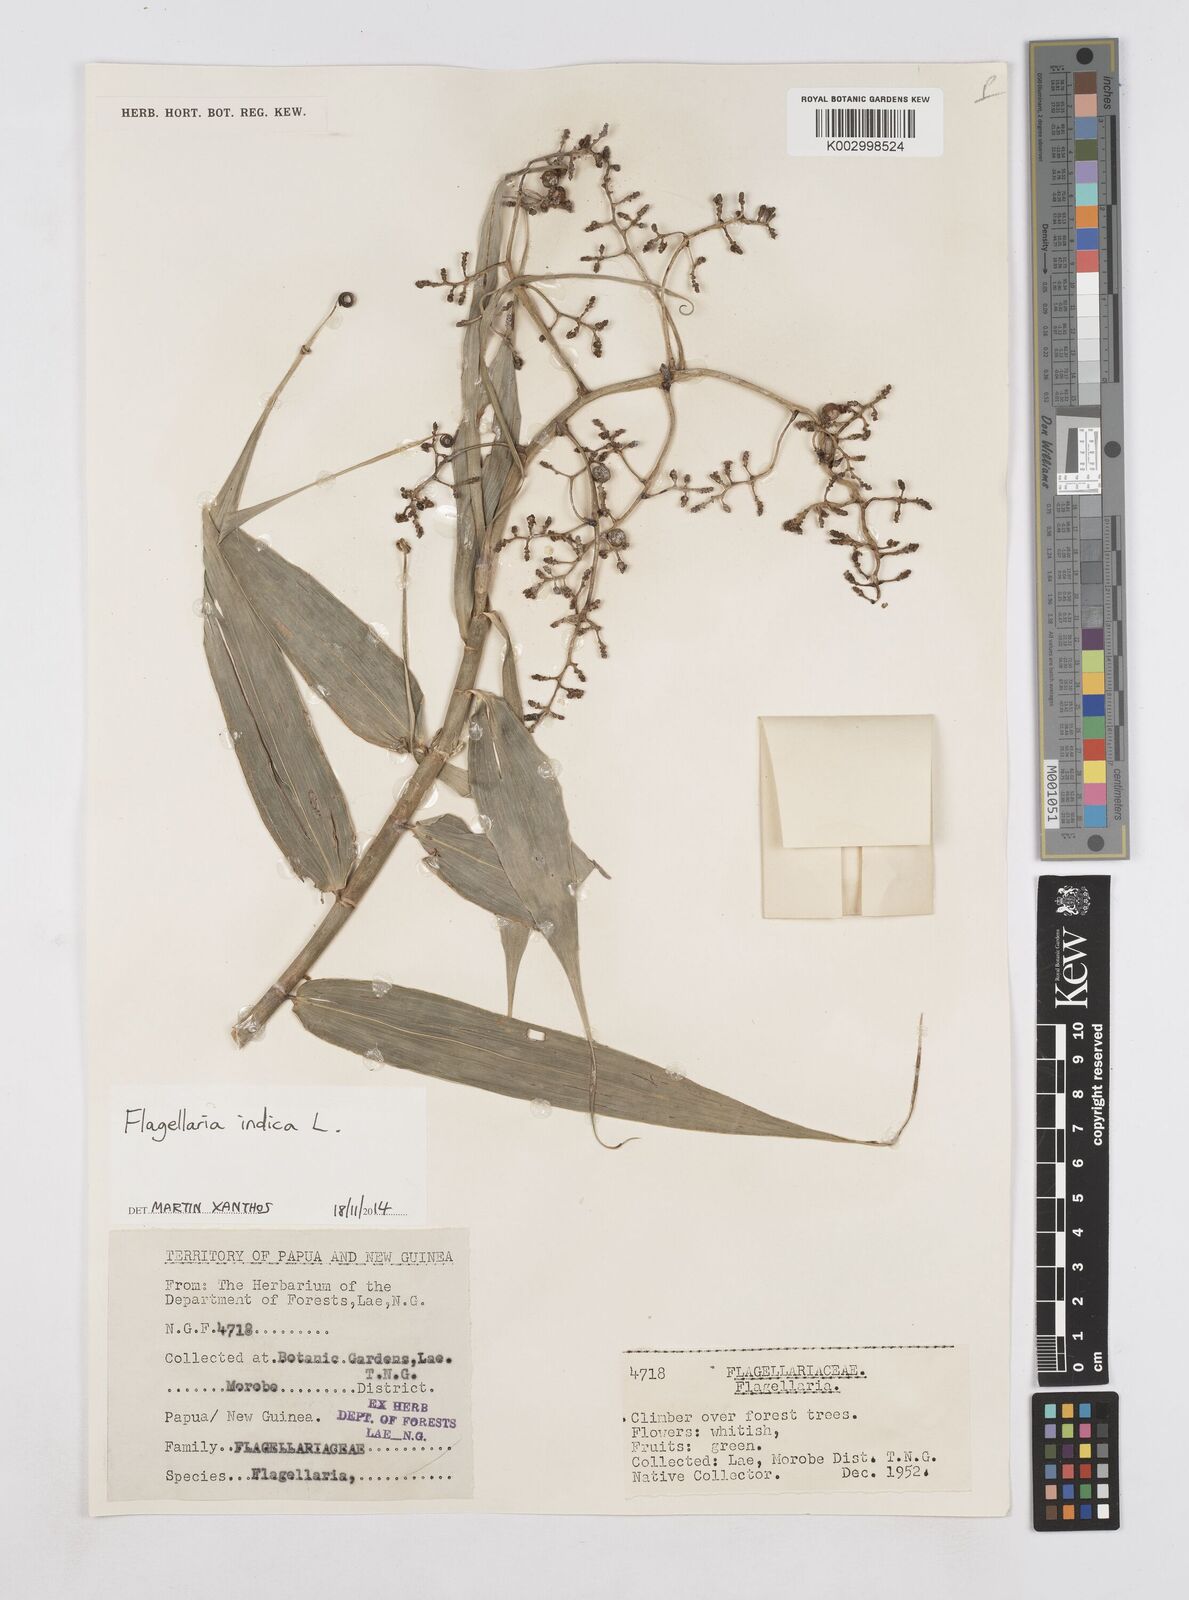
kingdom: Plantae
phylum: Tracheophyta
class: Liliopsida
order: Poales
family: Flagellariaceae
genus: Flagellaria
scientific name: Flagellaria indica
